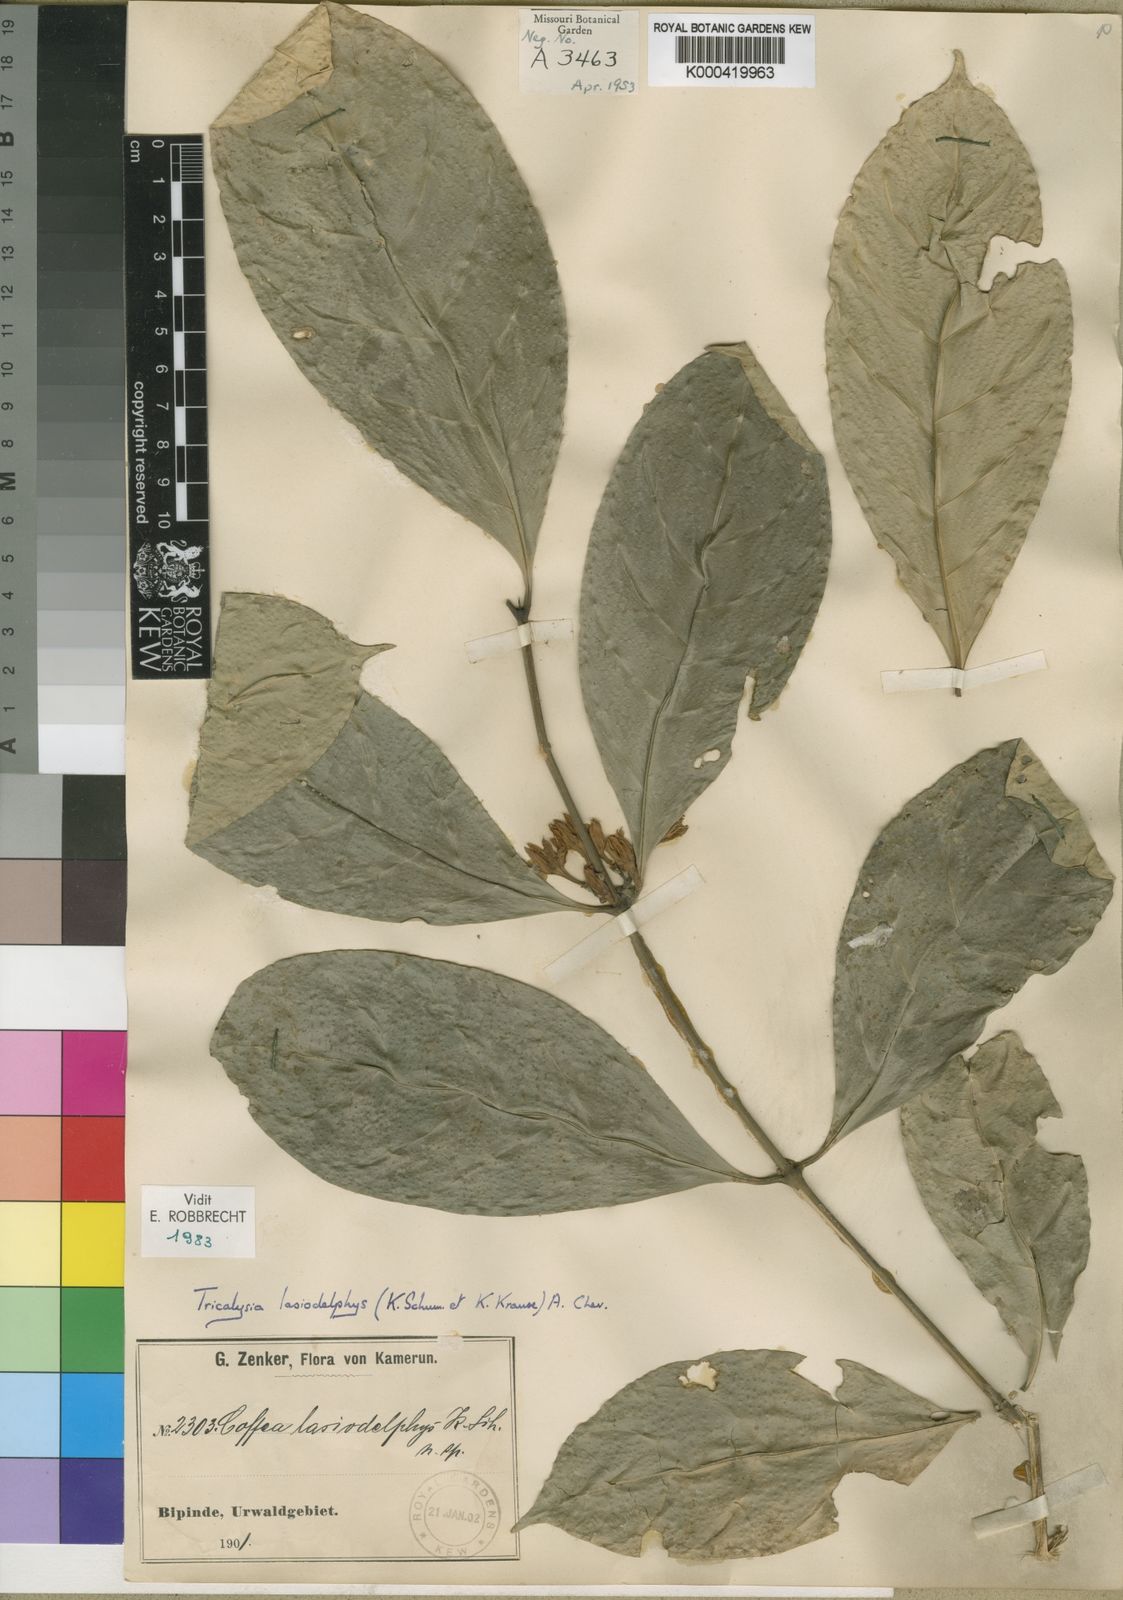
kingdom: Plantae
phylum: Tracheophyta
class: Magnoliopsida
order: Gentianales
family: Rubiaceae
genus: Tricalysia
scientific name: Tricalysia lasiodelphys
